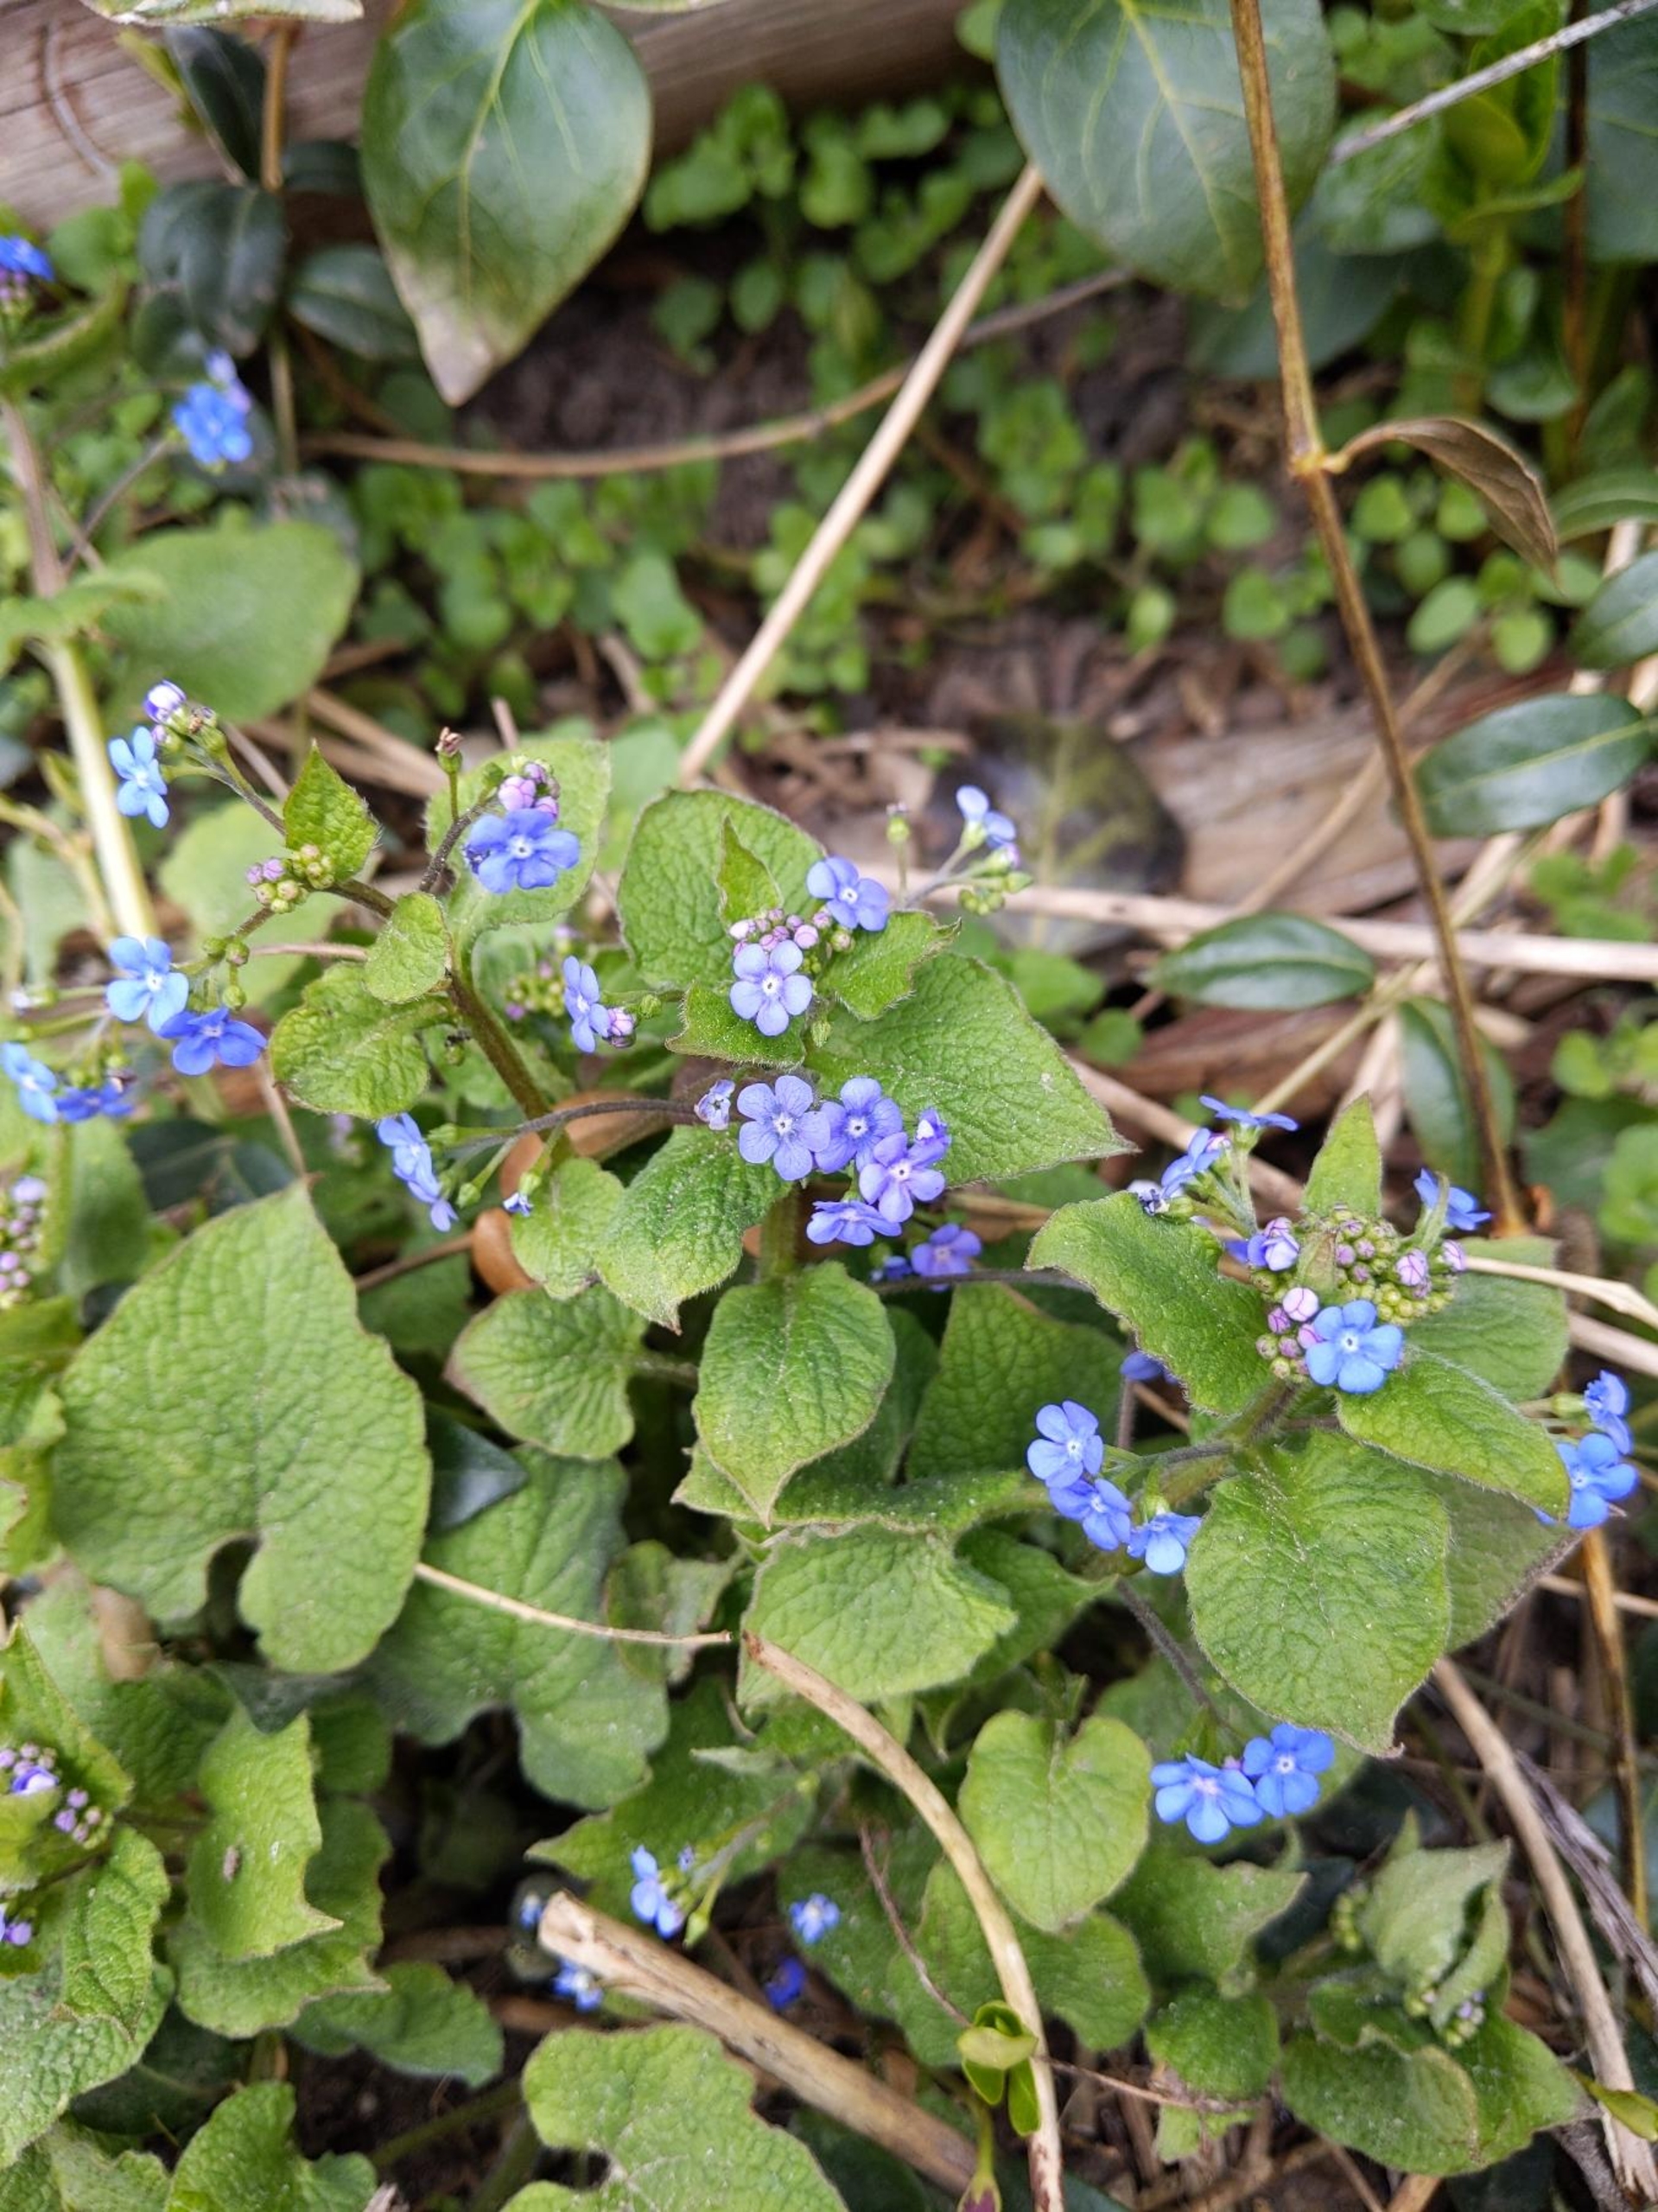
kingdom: Plantae
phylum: Tracheophyta
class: Magnoliopsida
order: Boraginales
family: Boraginaceae
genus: Brunnera
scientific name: Brunnera macrophylla
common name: Kærmindesøster
